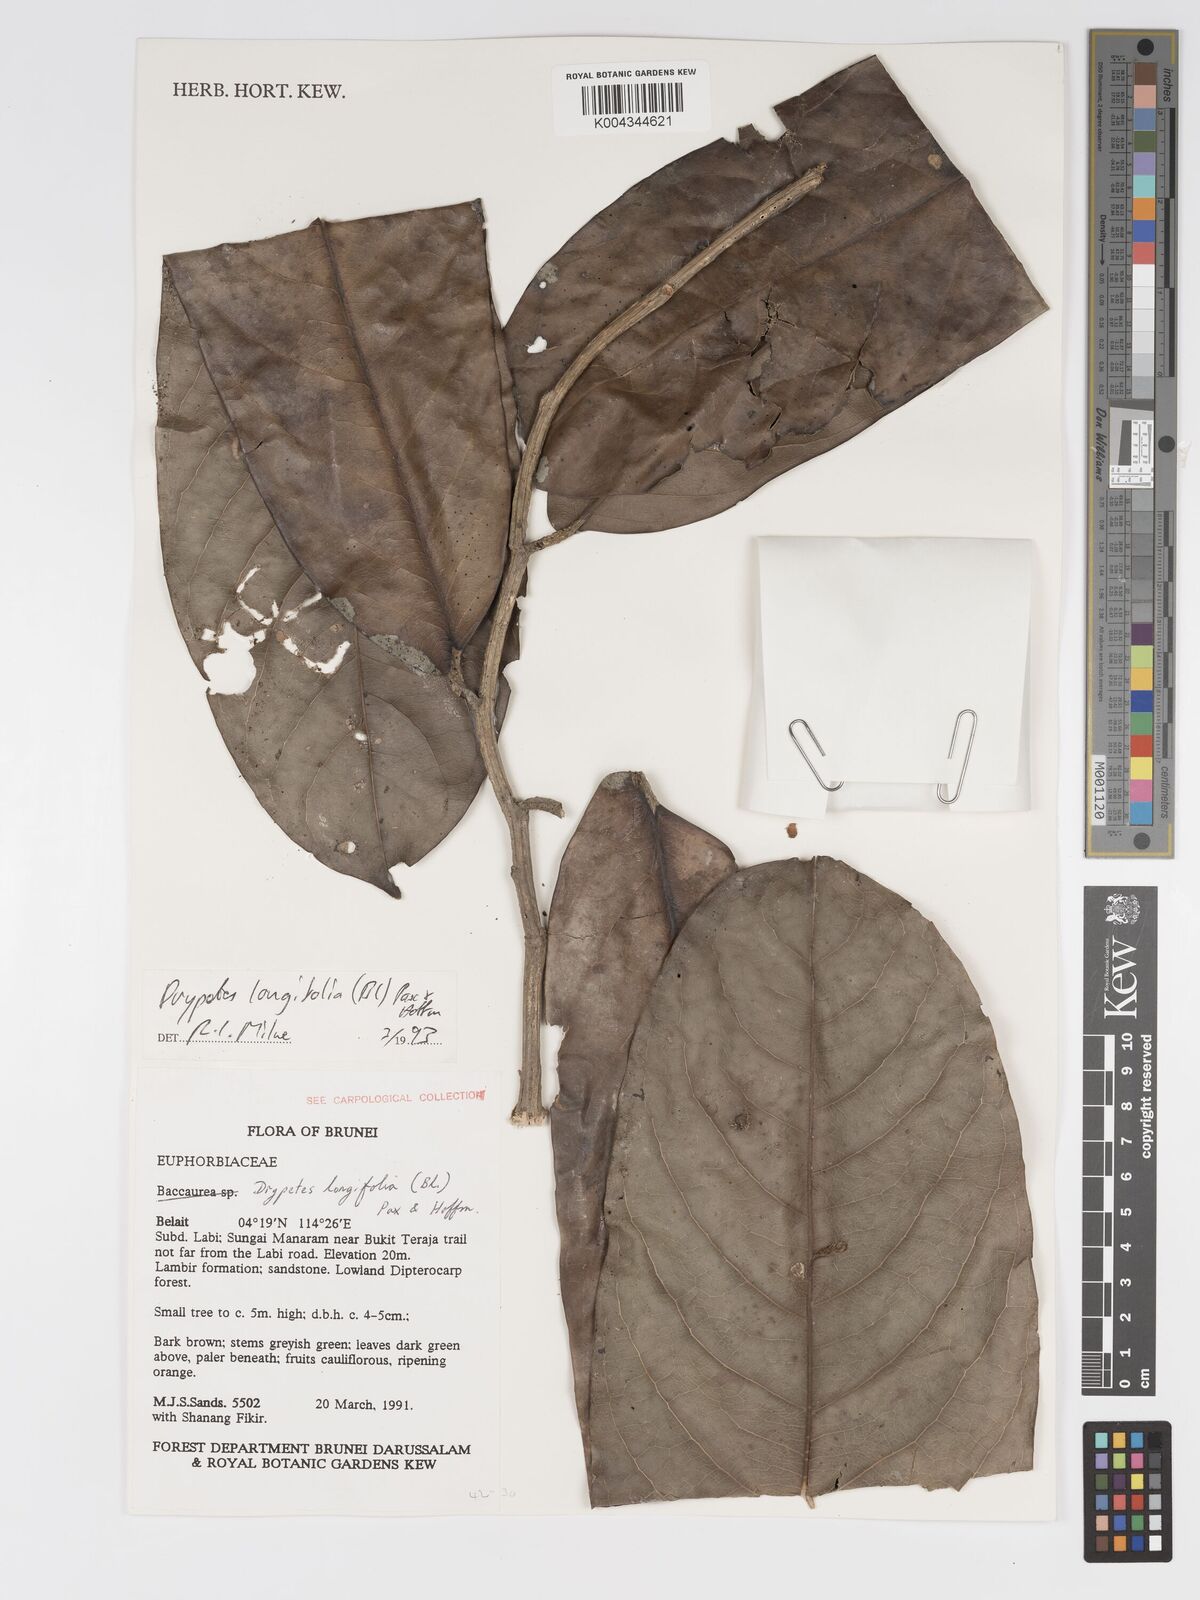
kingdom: Plantae
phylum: Tracheophyta
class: Magnoliopsida
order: Malpighiales
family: Putranjivaceae
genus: Drypetes
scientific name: Drypetes longifolia
